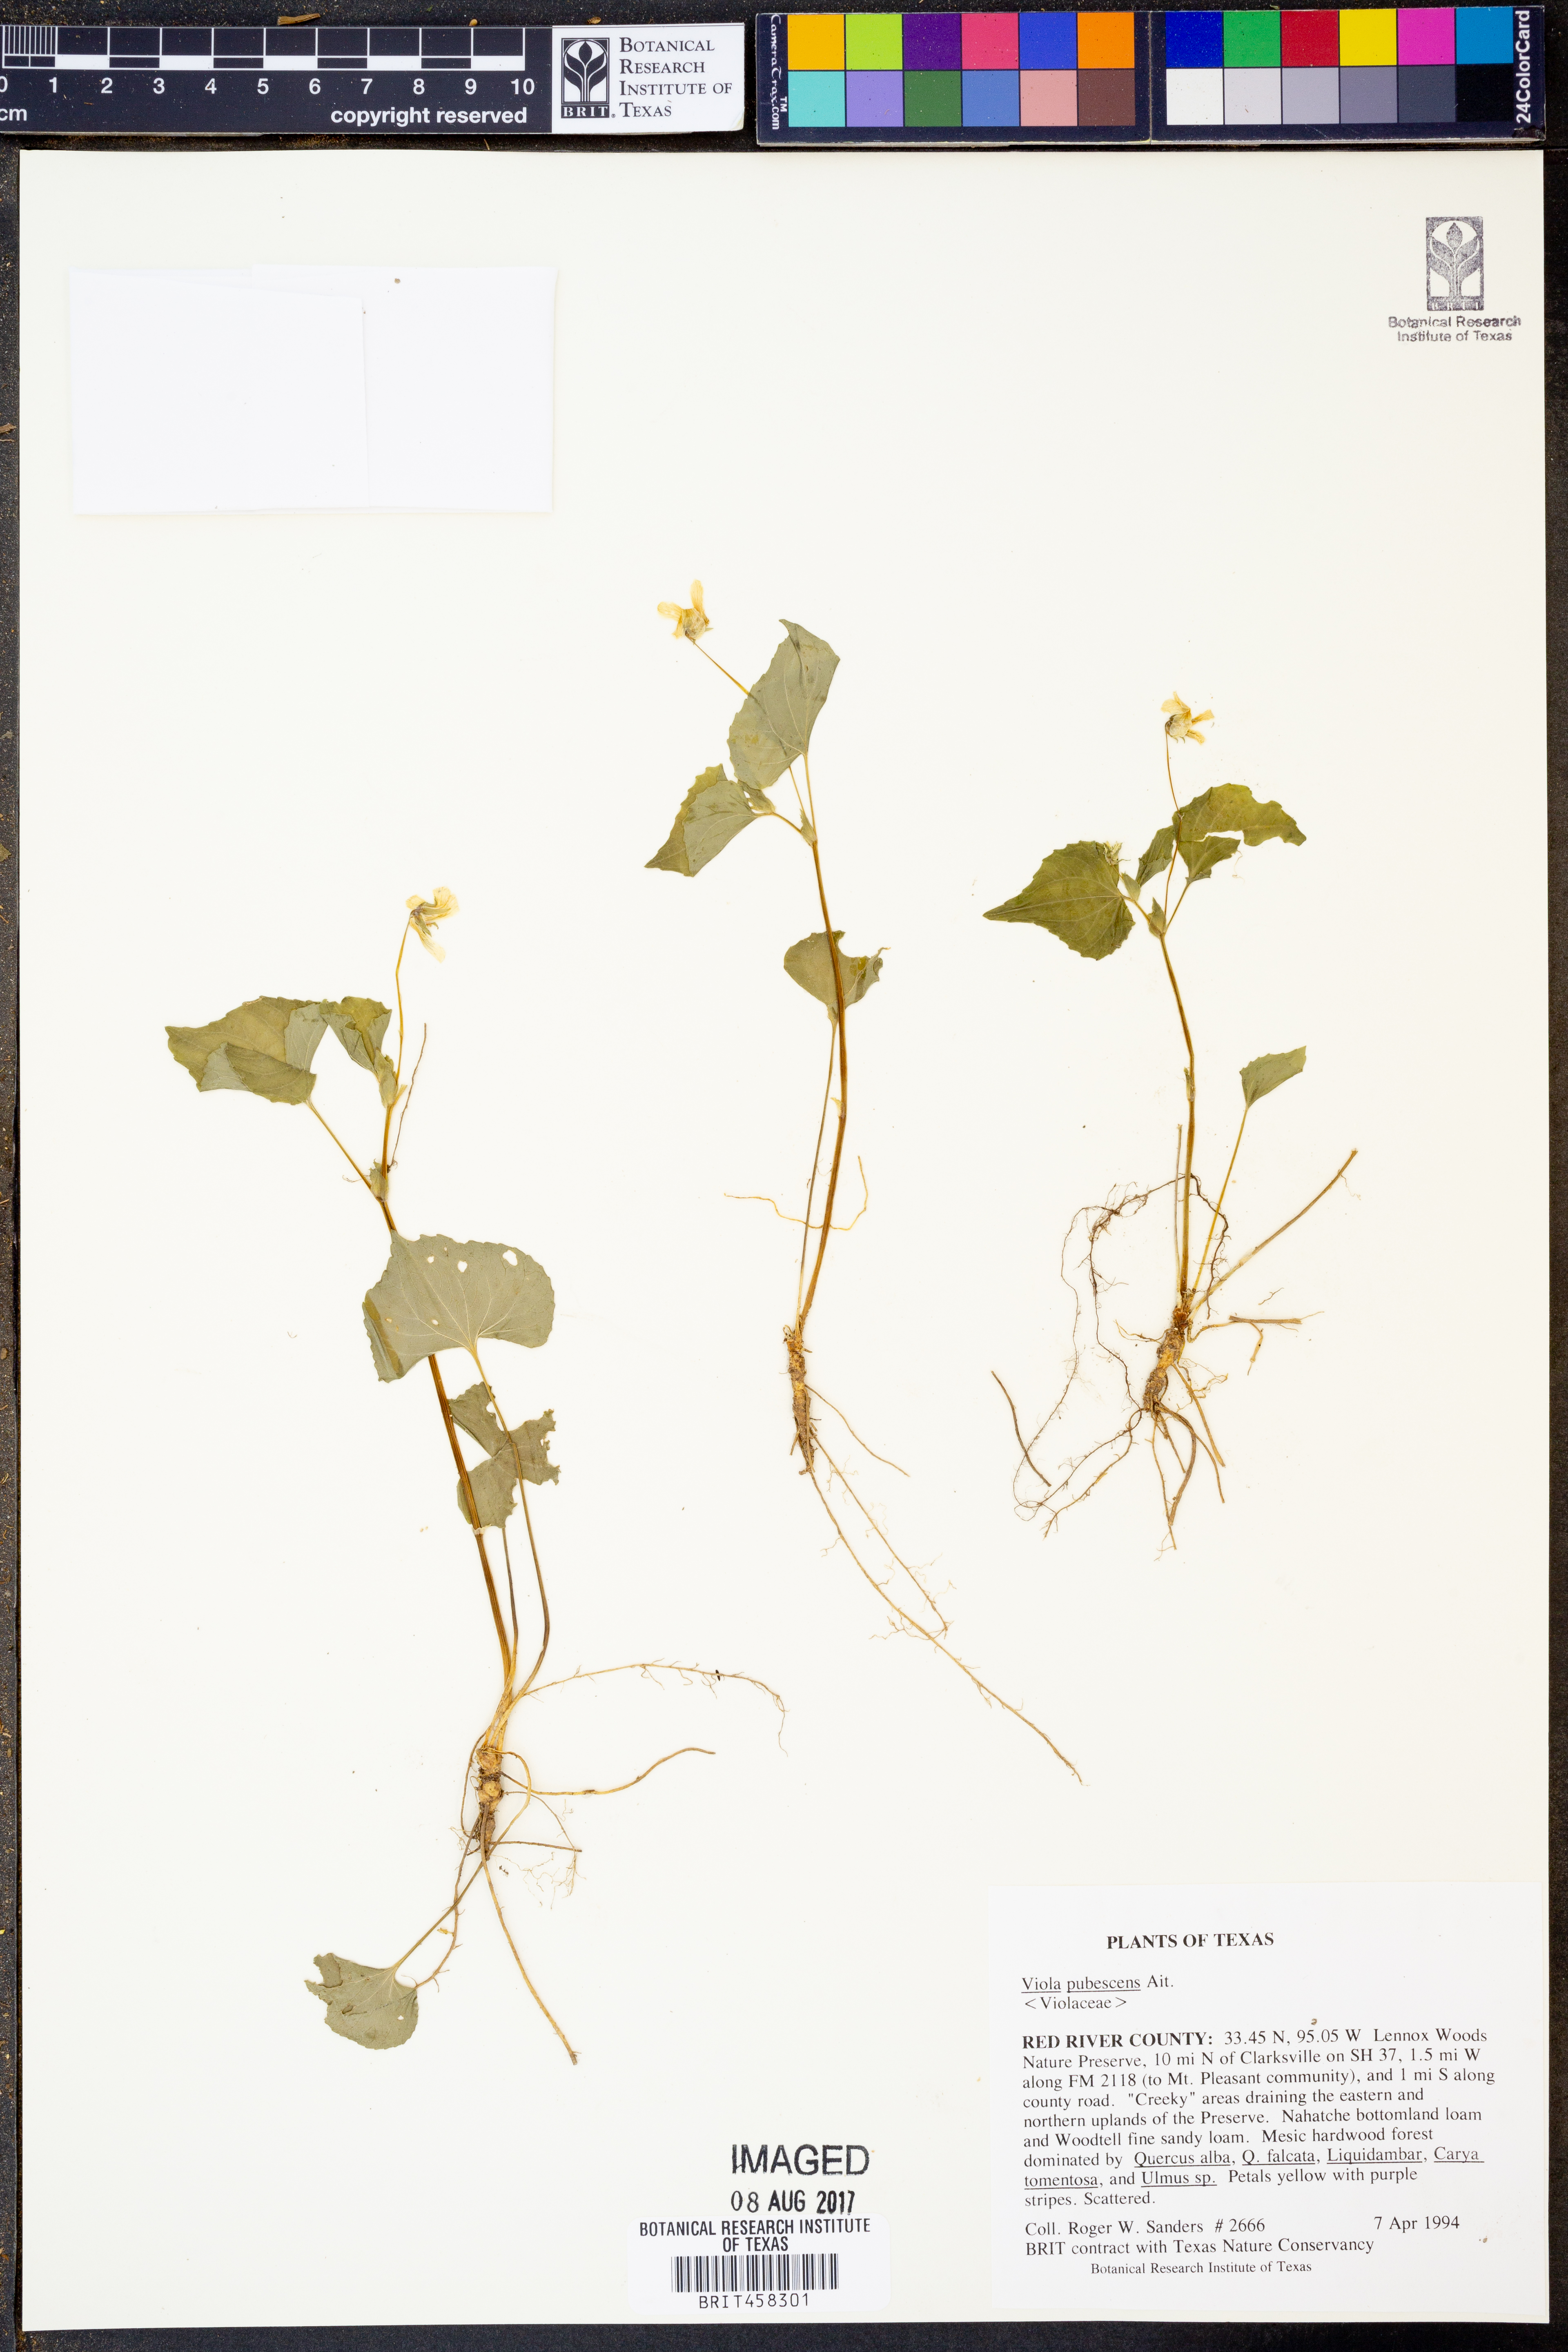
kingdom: Plantae
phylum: Tracheophyta
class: Magnoliopsida
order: Malpighiales
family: Violaceae
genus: Viola
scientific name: Viola pubescens
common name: Yellow forest violet
